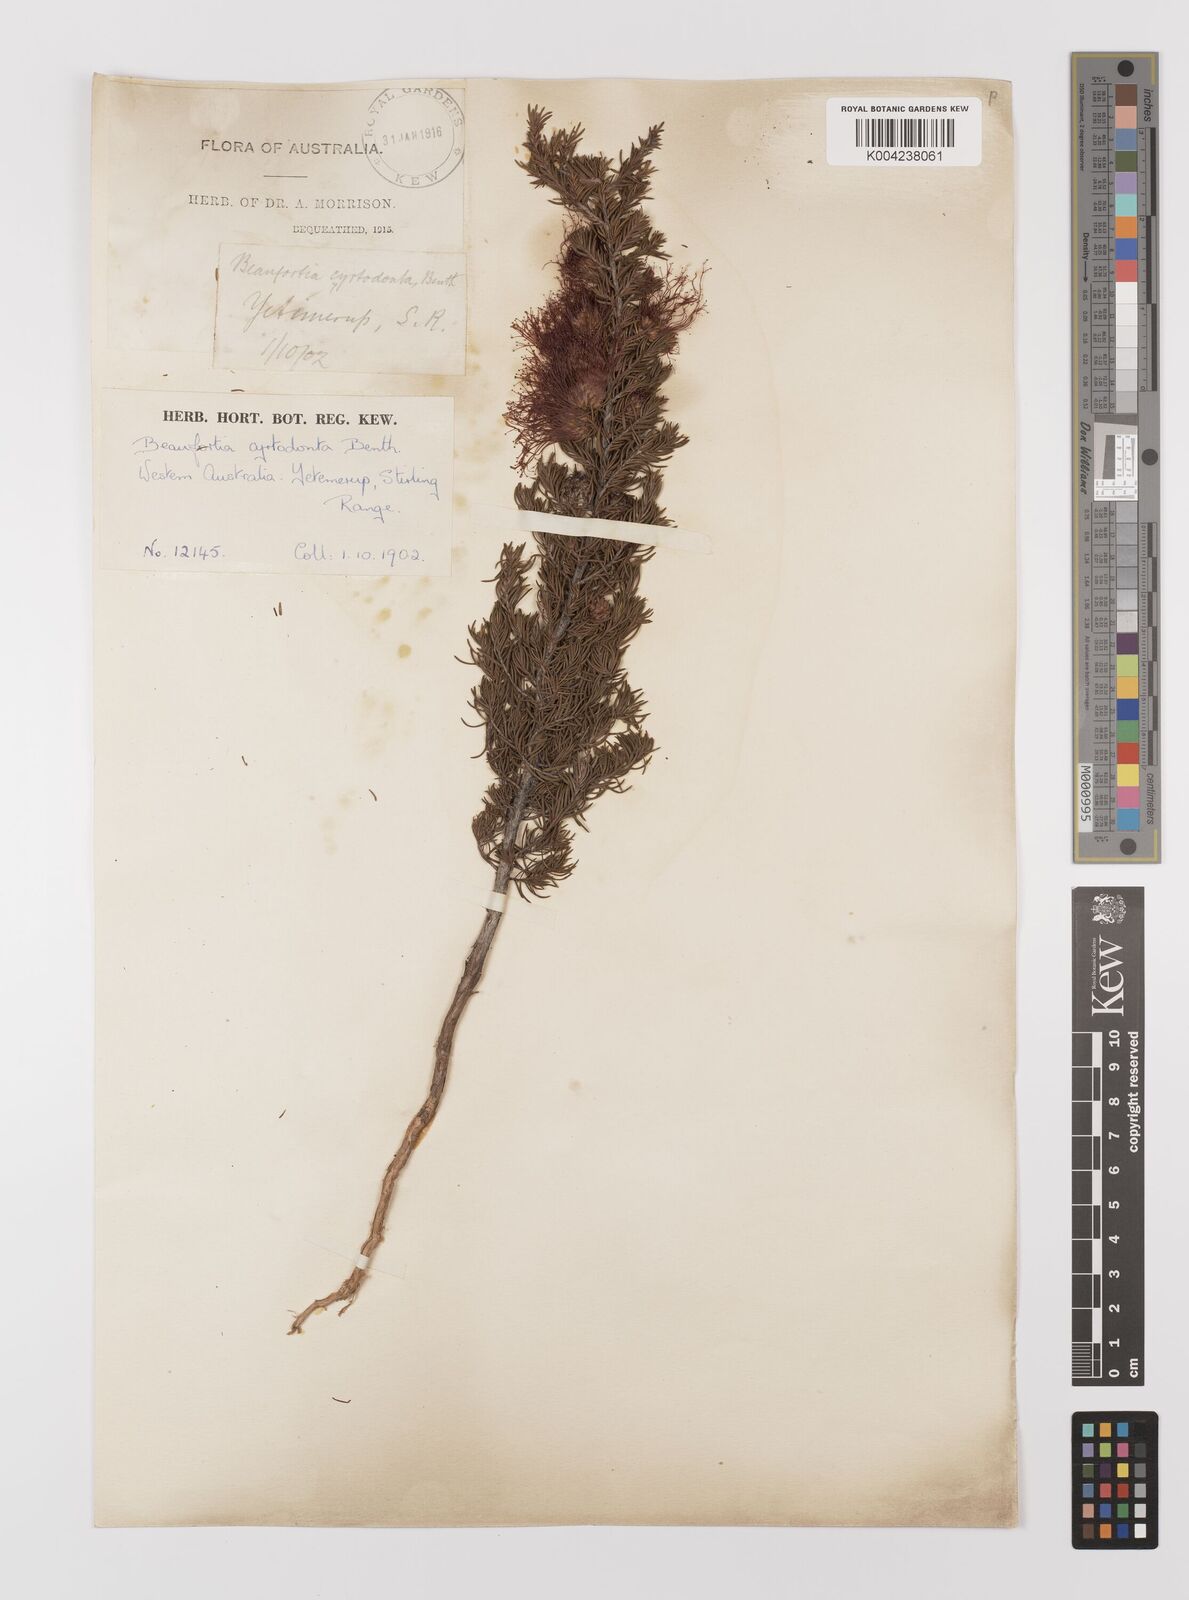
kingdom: Plantae
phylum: Tracheophyta
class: Magnoliopsida
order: Myrtales
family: Myrtaceae
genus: Melaleuca
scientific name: Melaleuca cyrtodonta
